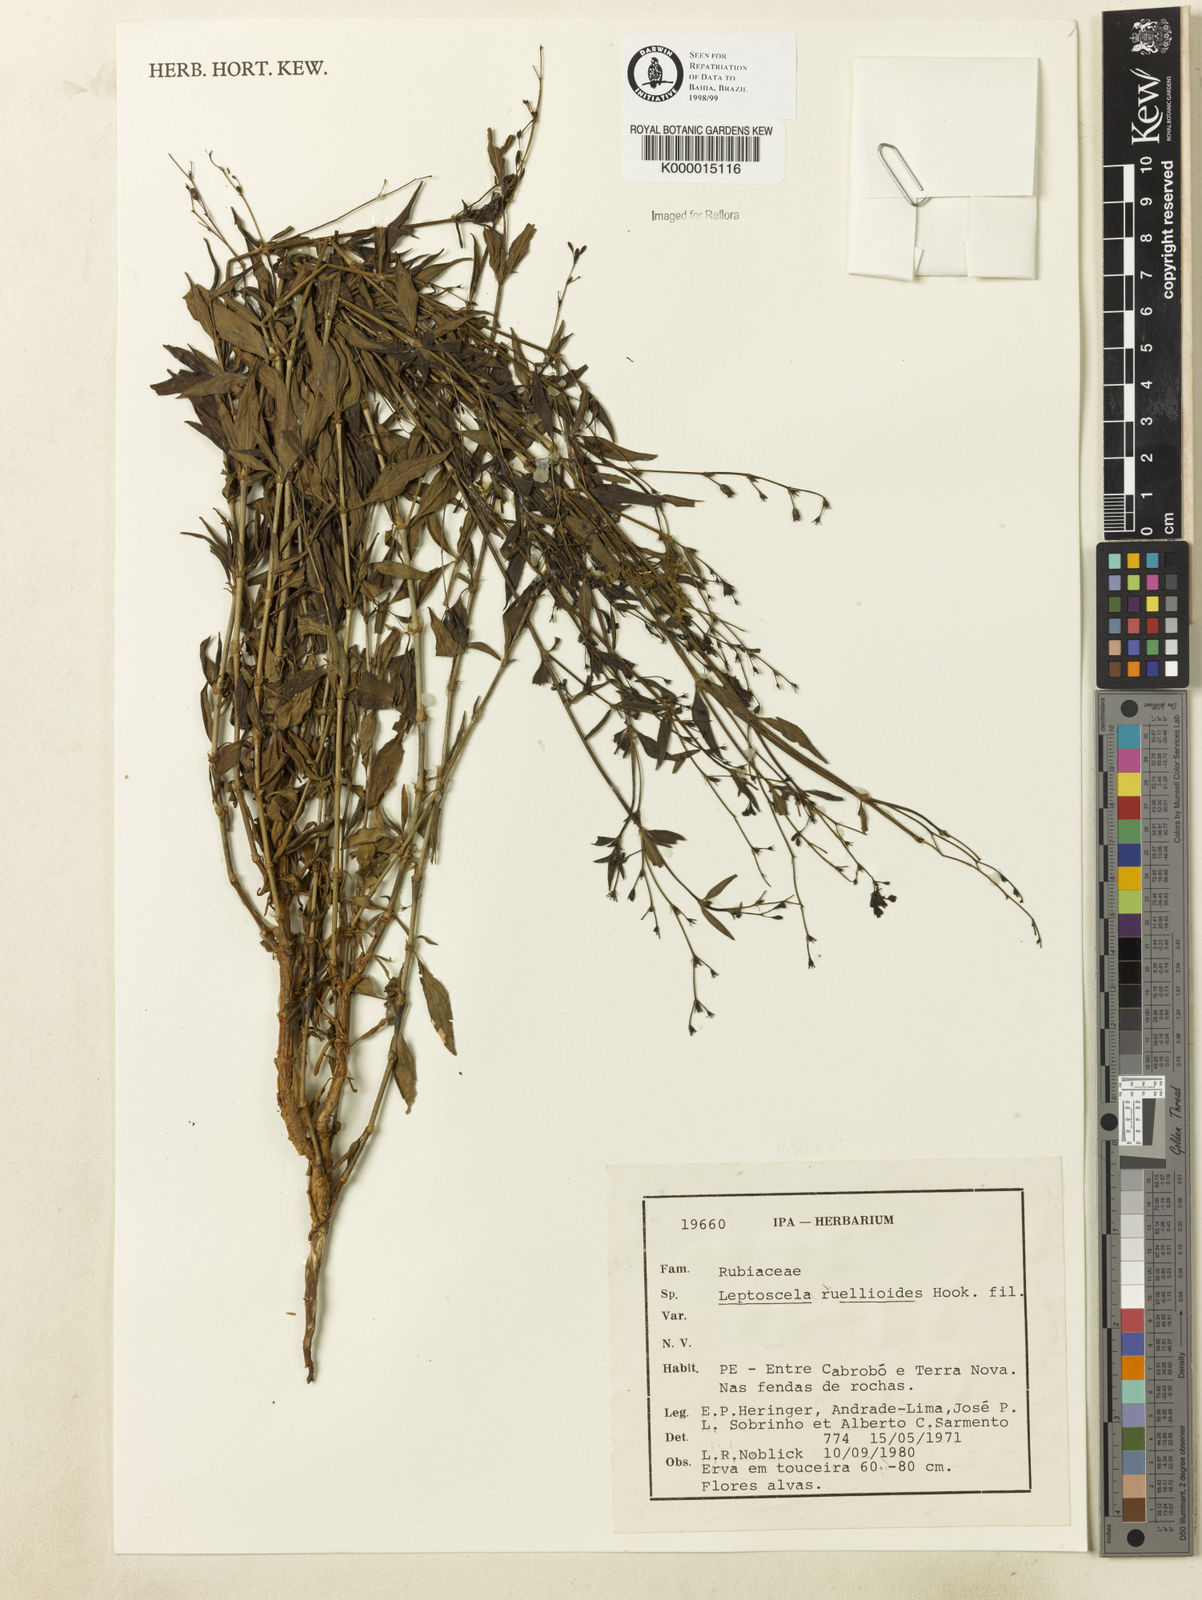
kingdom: Plantae
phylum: Tracheophyta
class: Magnoliopsida
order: Gentianales
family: Rubiaceae
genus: Leptoscela
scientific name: Leptoscela
